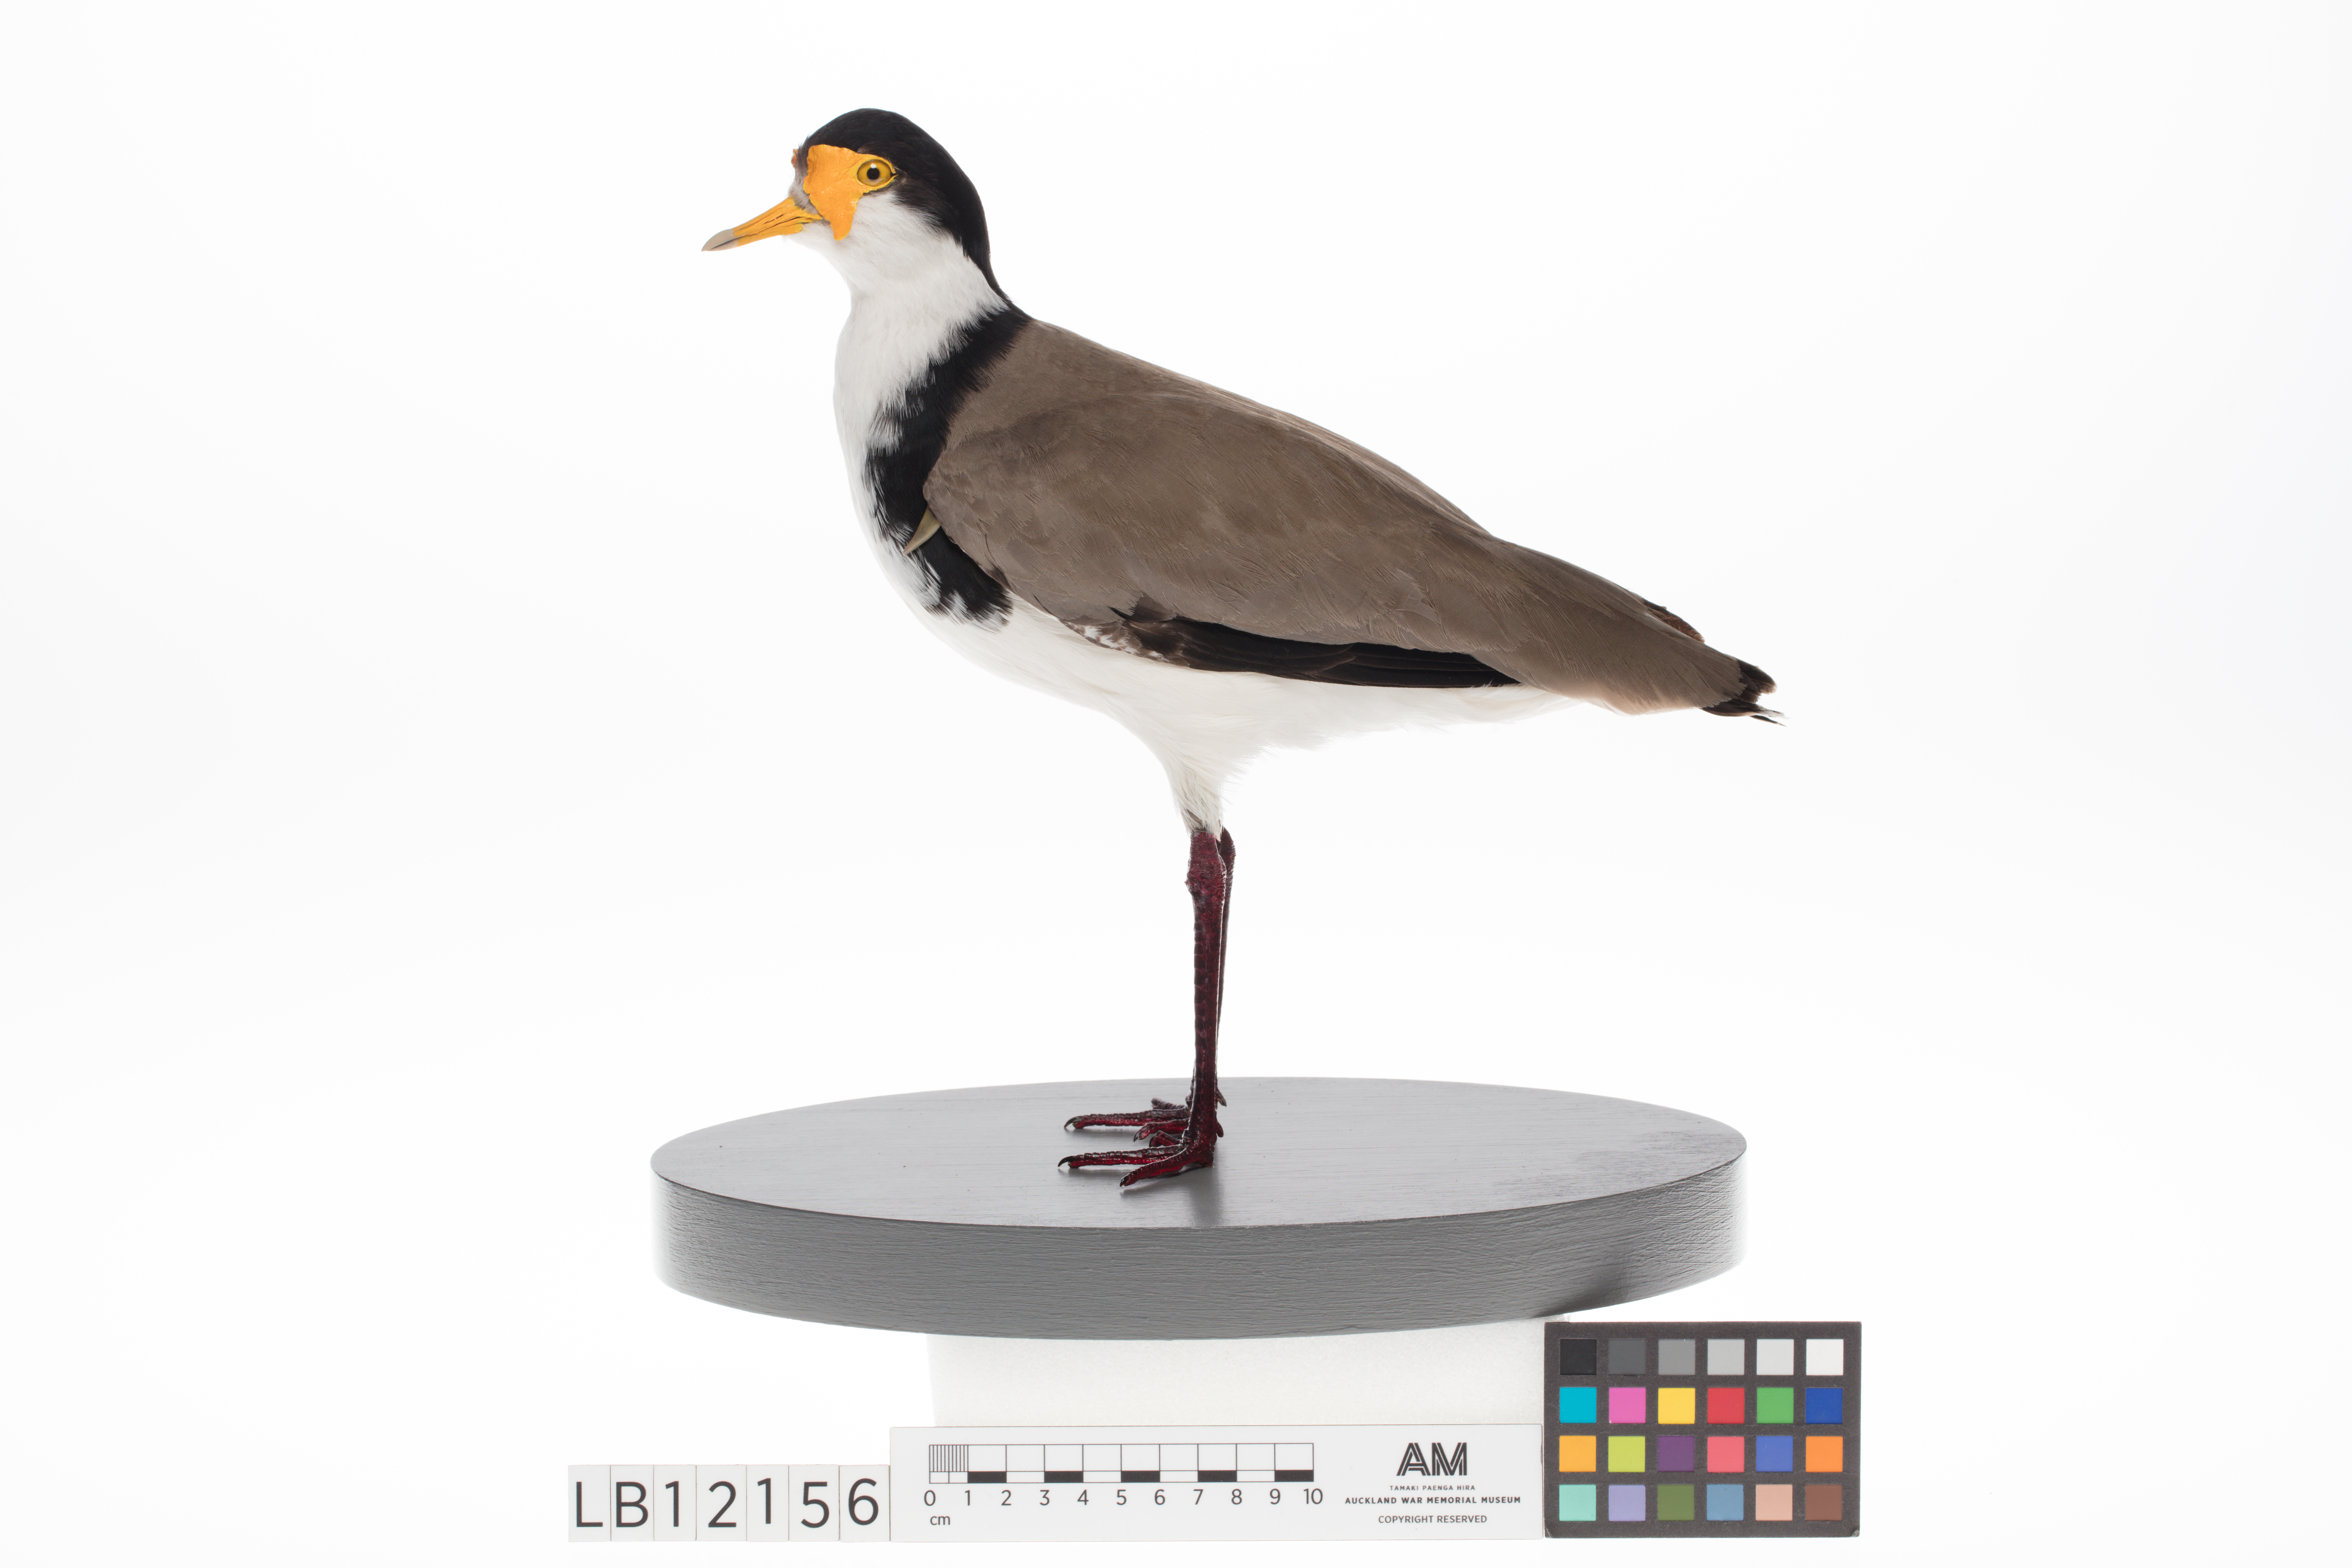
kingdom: Animalia
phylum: Chordata
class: Aves
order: Charadriiformes
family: Charadriidae
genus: Vanellus
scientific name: Vanellus miles
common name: Masked lapwing
